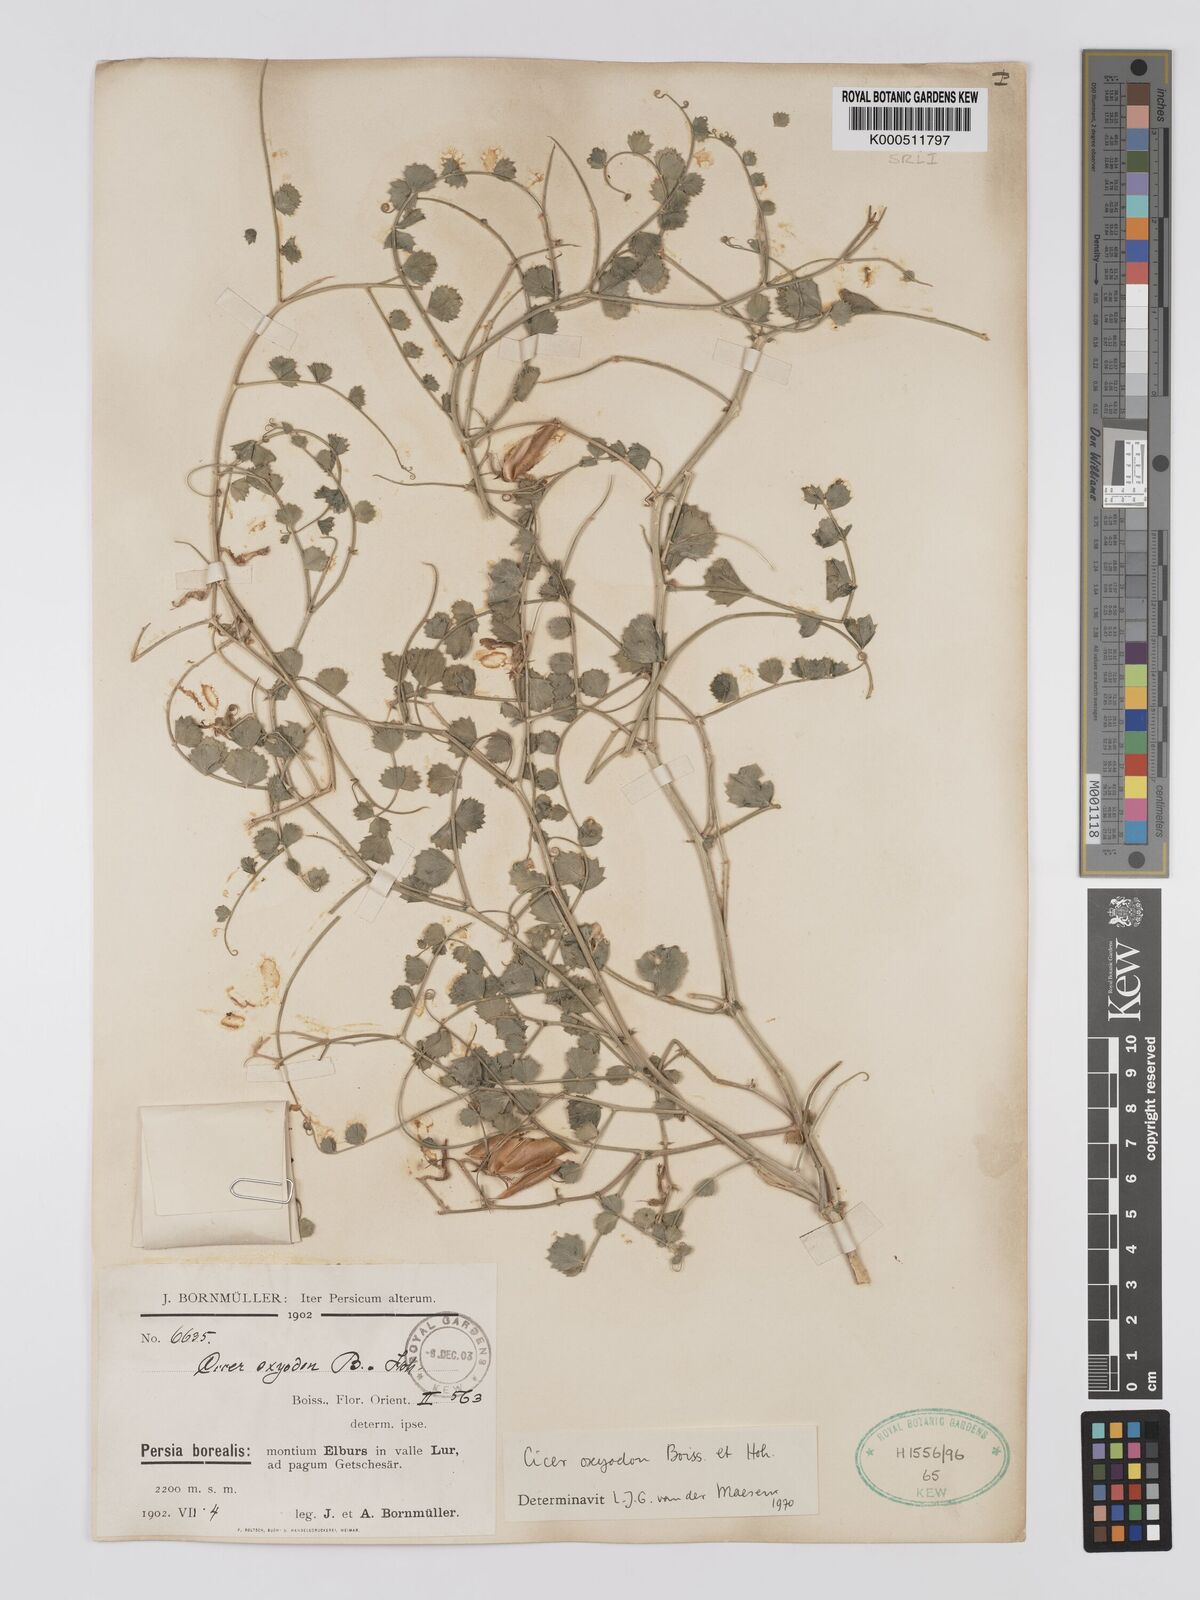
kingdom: Plantae
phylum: Tracheophyta
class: Magnoliopsida
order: Fabales
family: Fabaceae
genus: Cicer
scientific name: Cicer oxyodon
